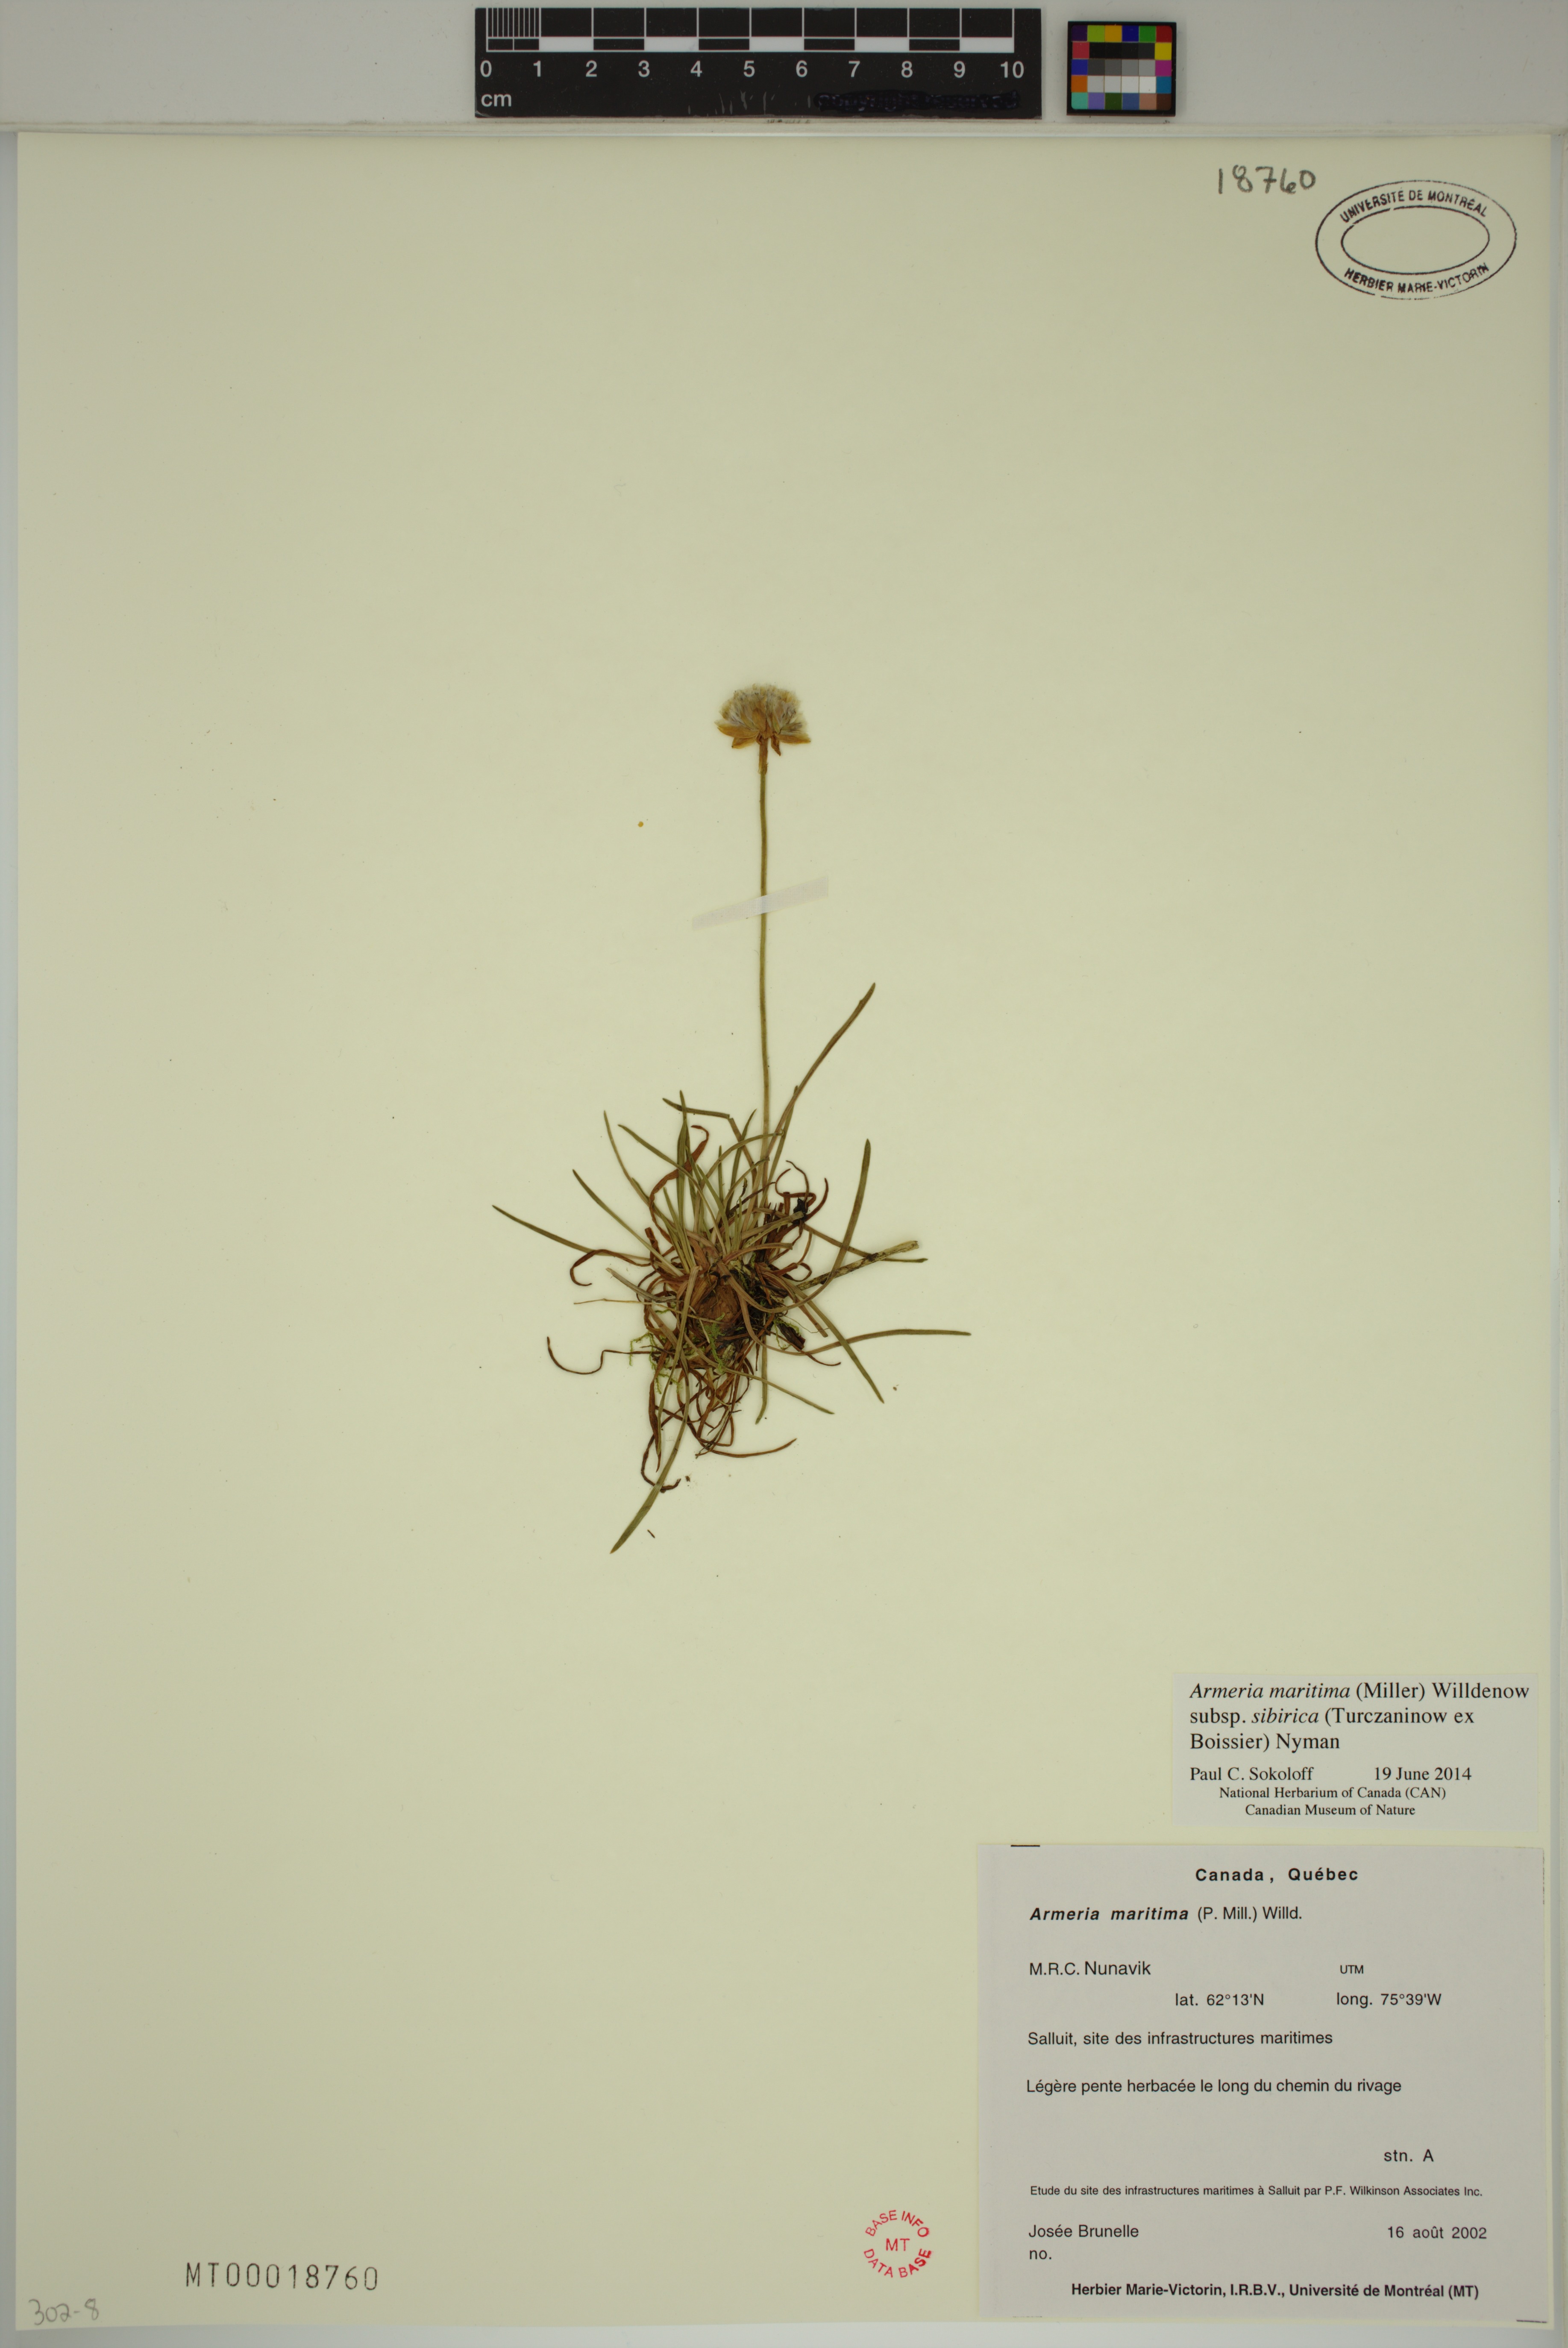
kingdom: Plantae
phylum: Tracheophyta
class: Magnoliopsida
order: Caryophyllales
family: Plumbaginaceae
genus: Armeria
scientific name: Armeria maritima
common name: Thrift
